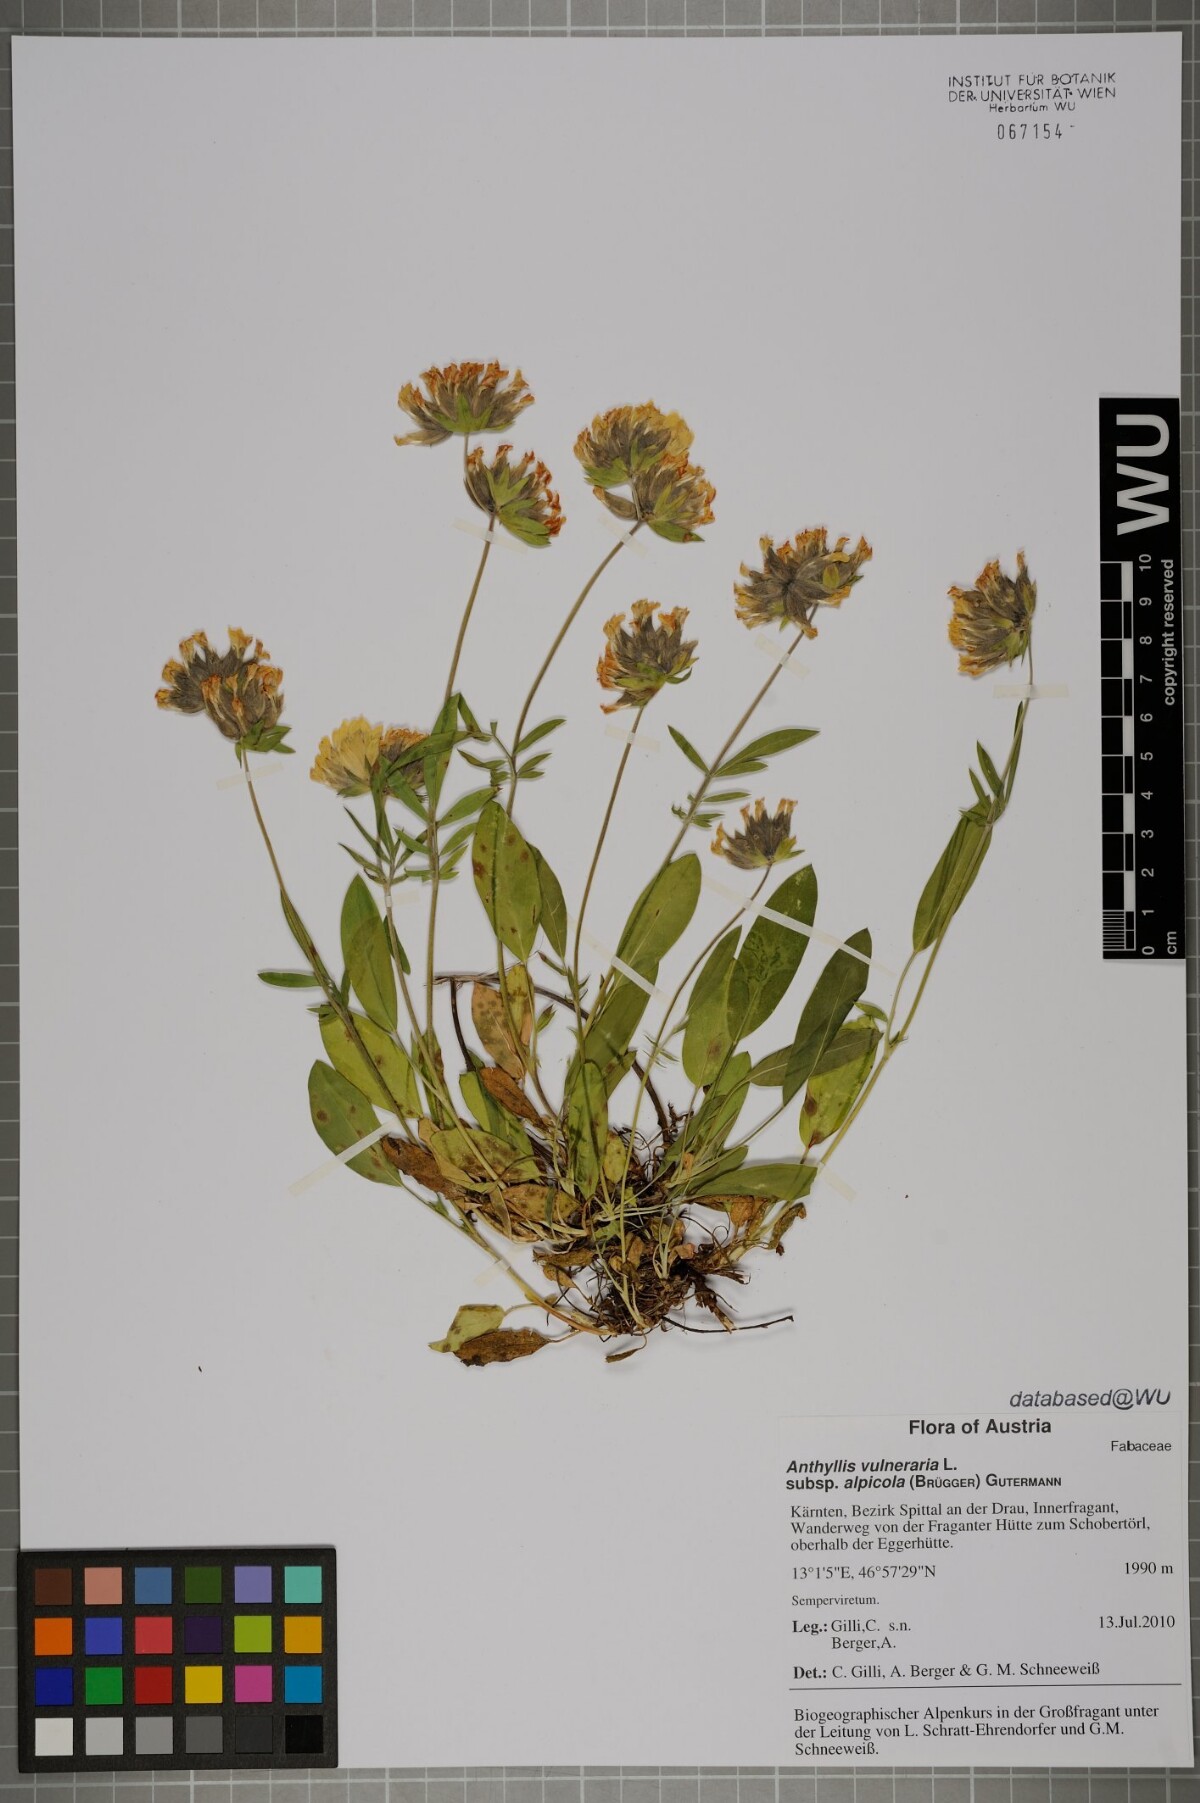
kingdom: Plantae
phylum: Tracheophyta
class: Magnoliopsida
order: Fabales
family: Fabaceae
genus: Anthyllis
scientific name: Anthyllis vulneraria
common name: Kidney vetch
